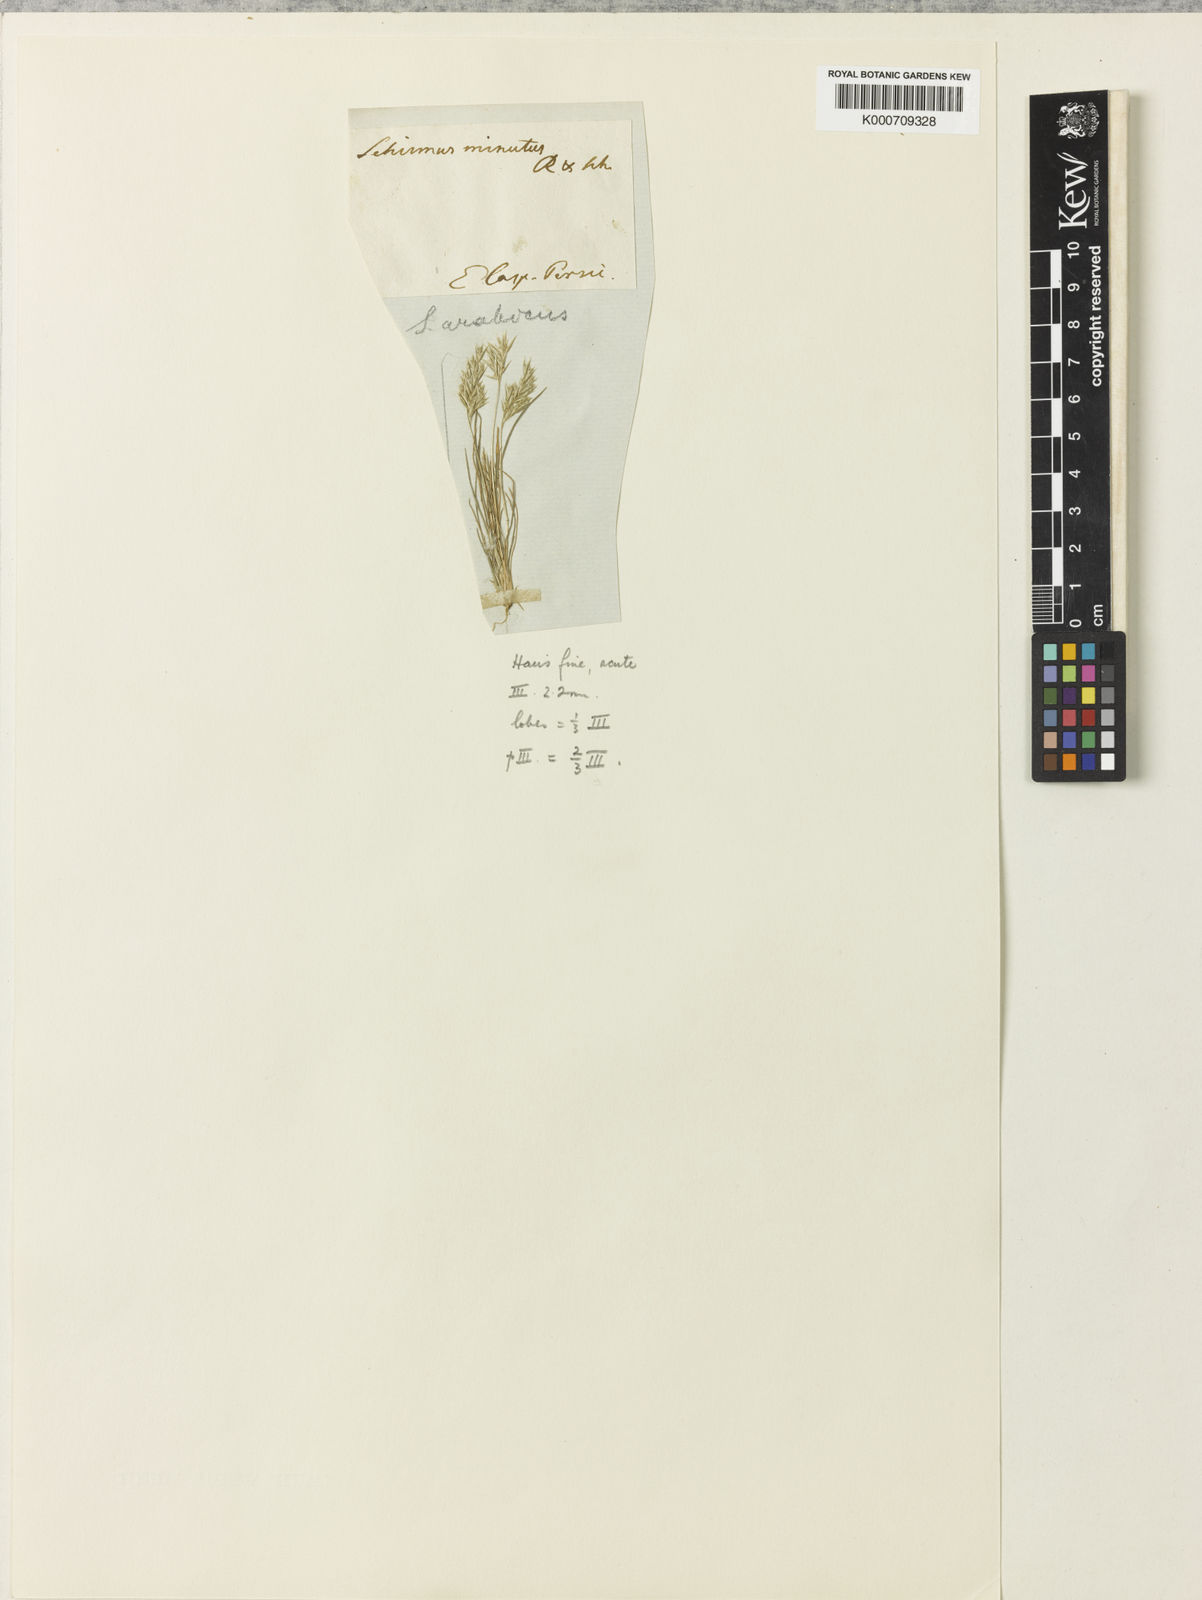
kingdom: Plantae
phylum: Tracheophyta
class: Liliopsida
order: Poales
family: Poaceae
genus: Schismus
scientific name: Schismus arabicus
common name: Arabian schismus
